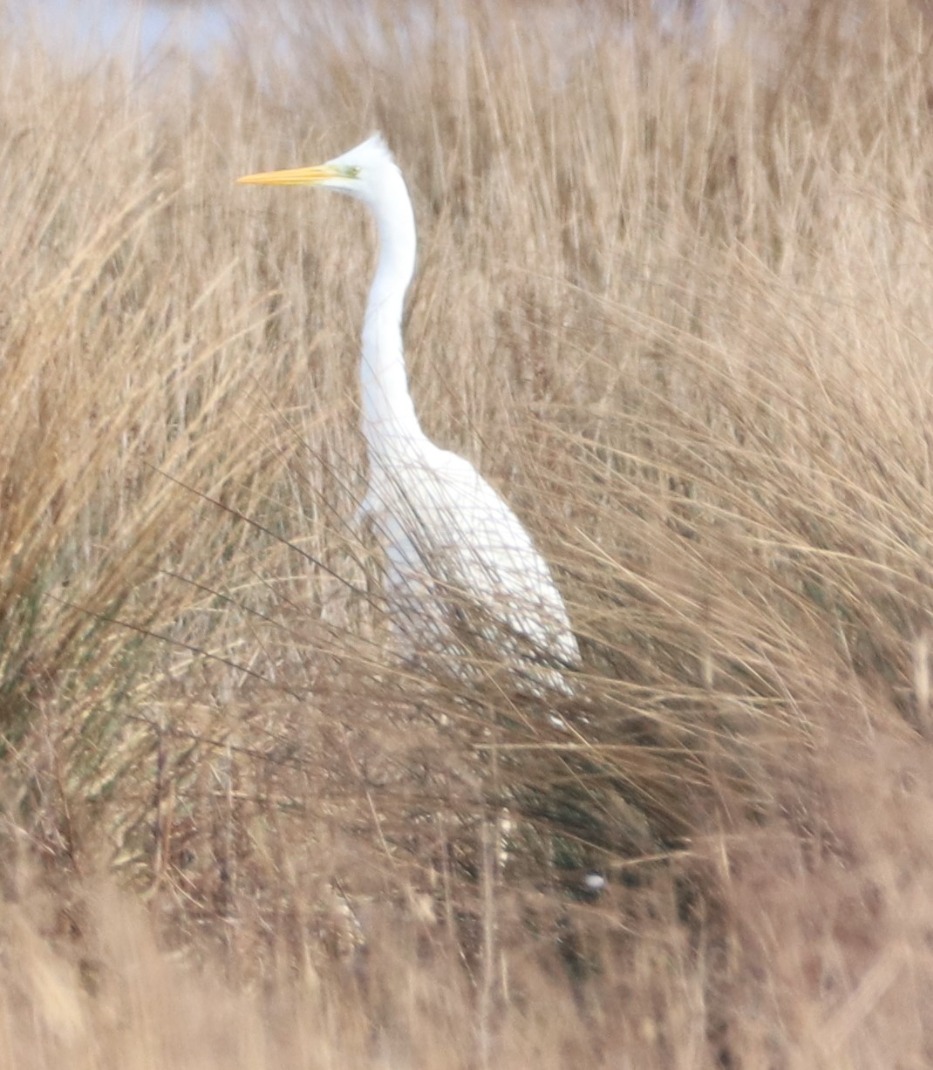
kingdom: Animalia
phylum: Chordata
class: Aves
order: Pelecaniformes
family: Ardeidae
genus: Ardea
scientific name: Ardea alba
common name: Sølvhejre
